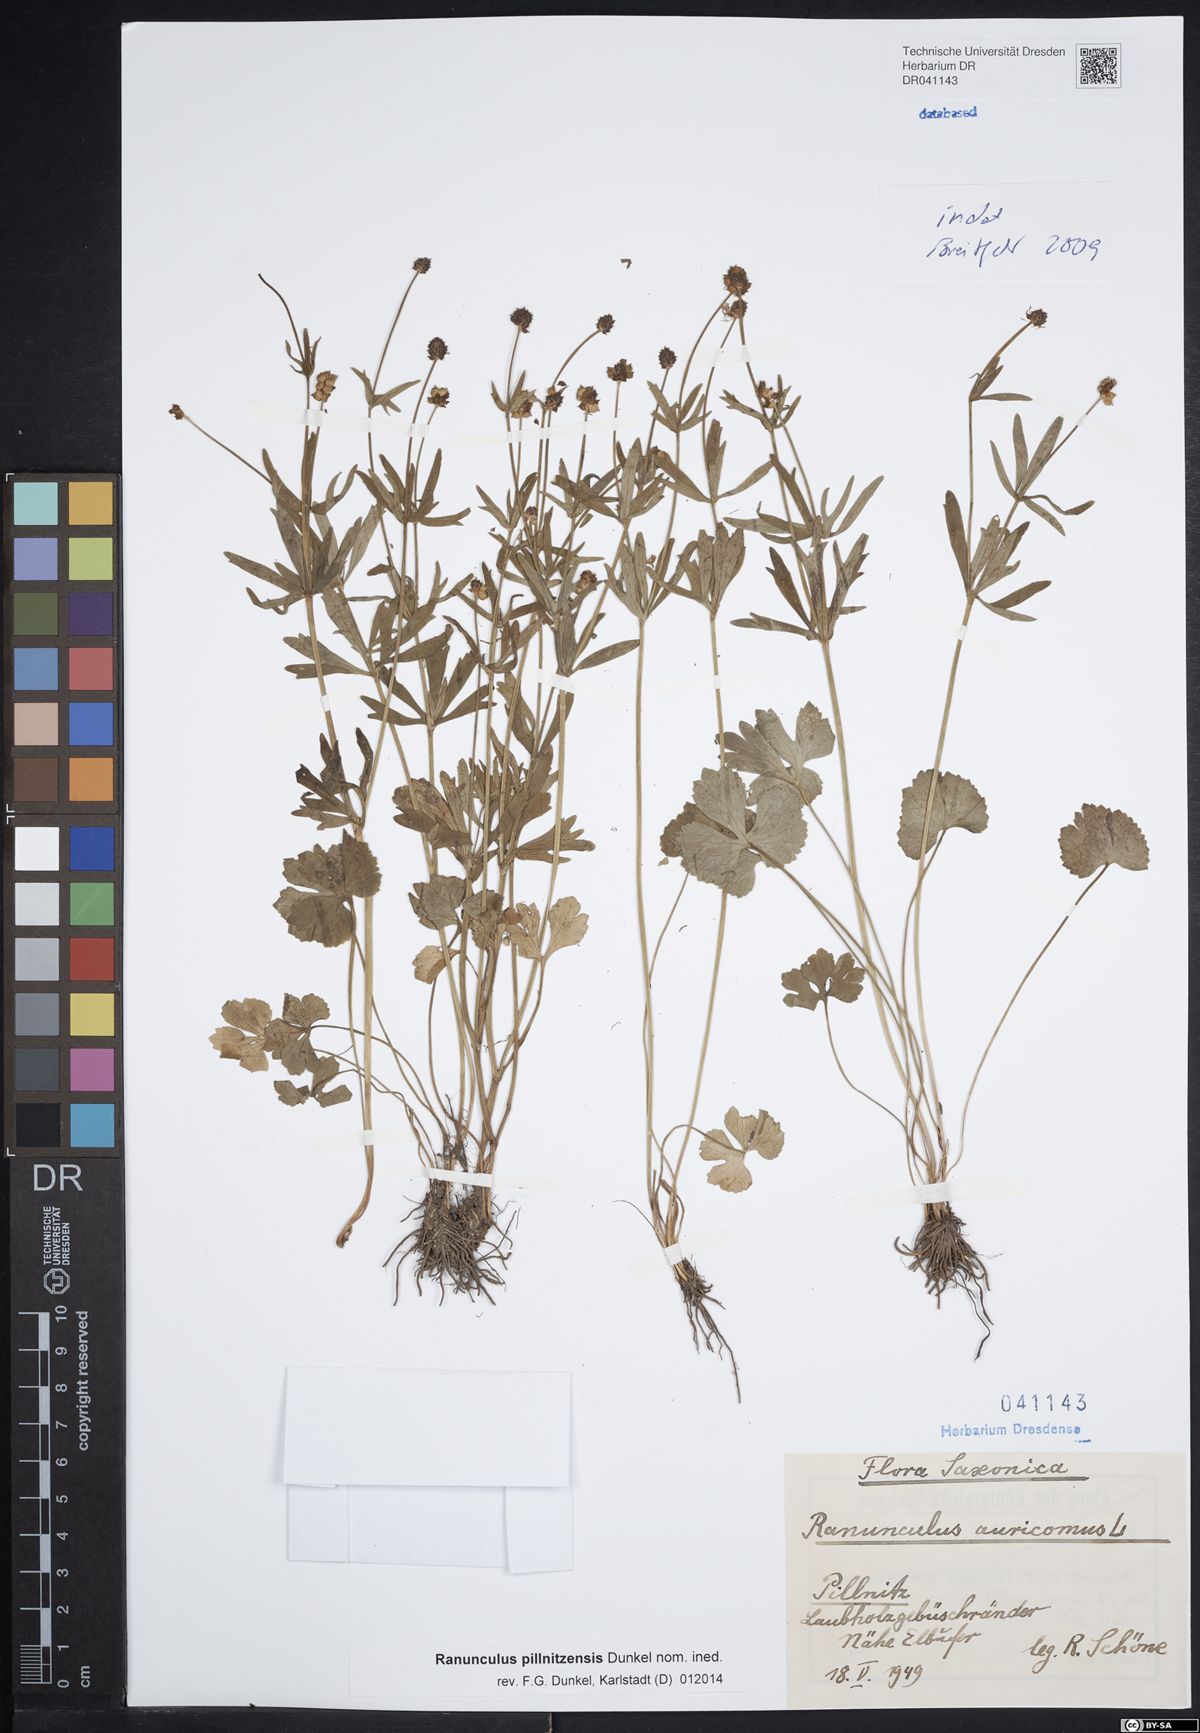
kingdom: Plantae
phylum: Tracheophyta
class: Magnoliopsida
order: Ranunculales
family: Ranunculaceae
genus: Ranunculus
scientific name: Ranunculus pillnitzensis
